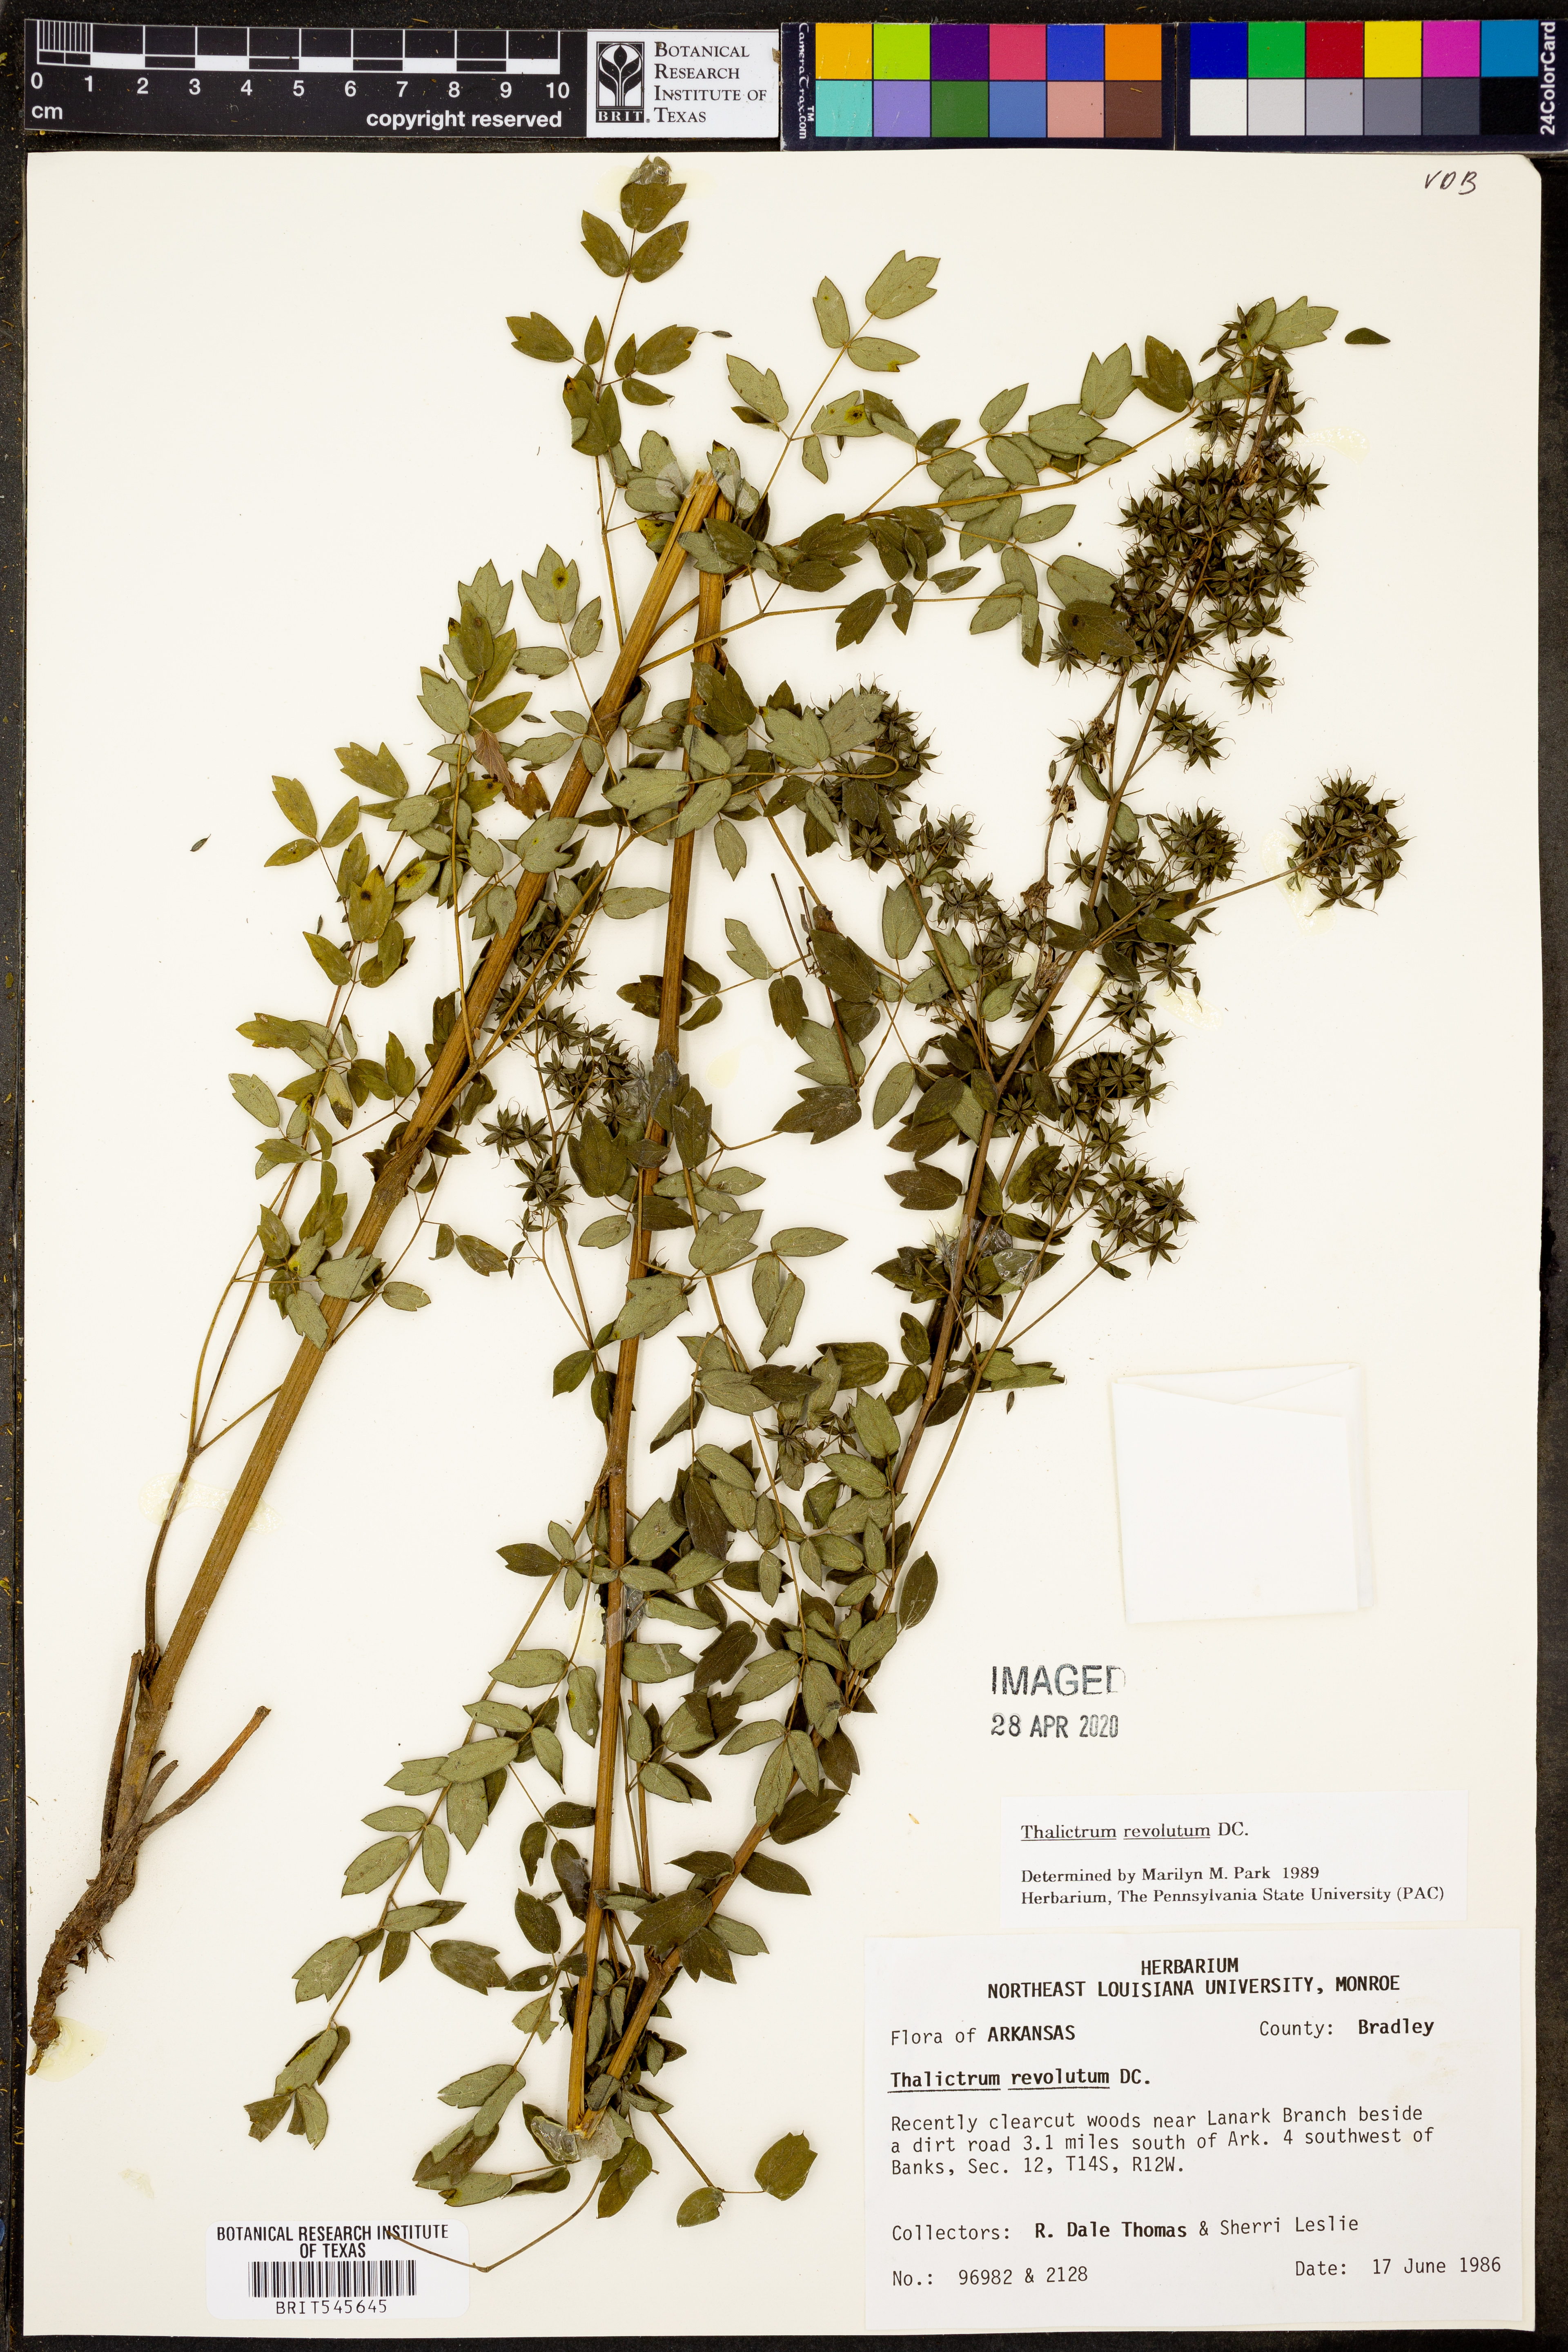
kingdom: Plantae
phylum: Tracheophyta
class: Magnoliopsida
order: Ranunculales
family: Ranunculaceae
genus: Thalictrum
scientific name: Thalictrum revolutum
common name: Waxy meadow-rue
